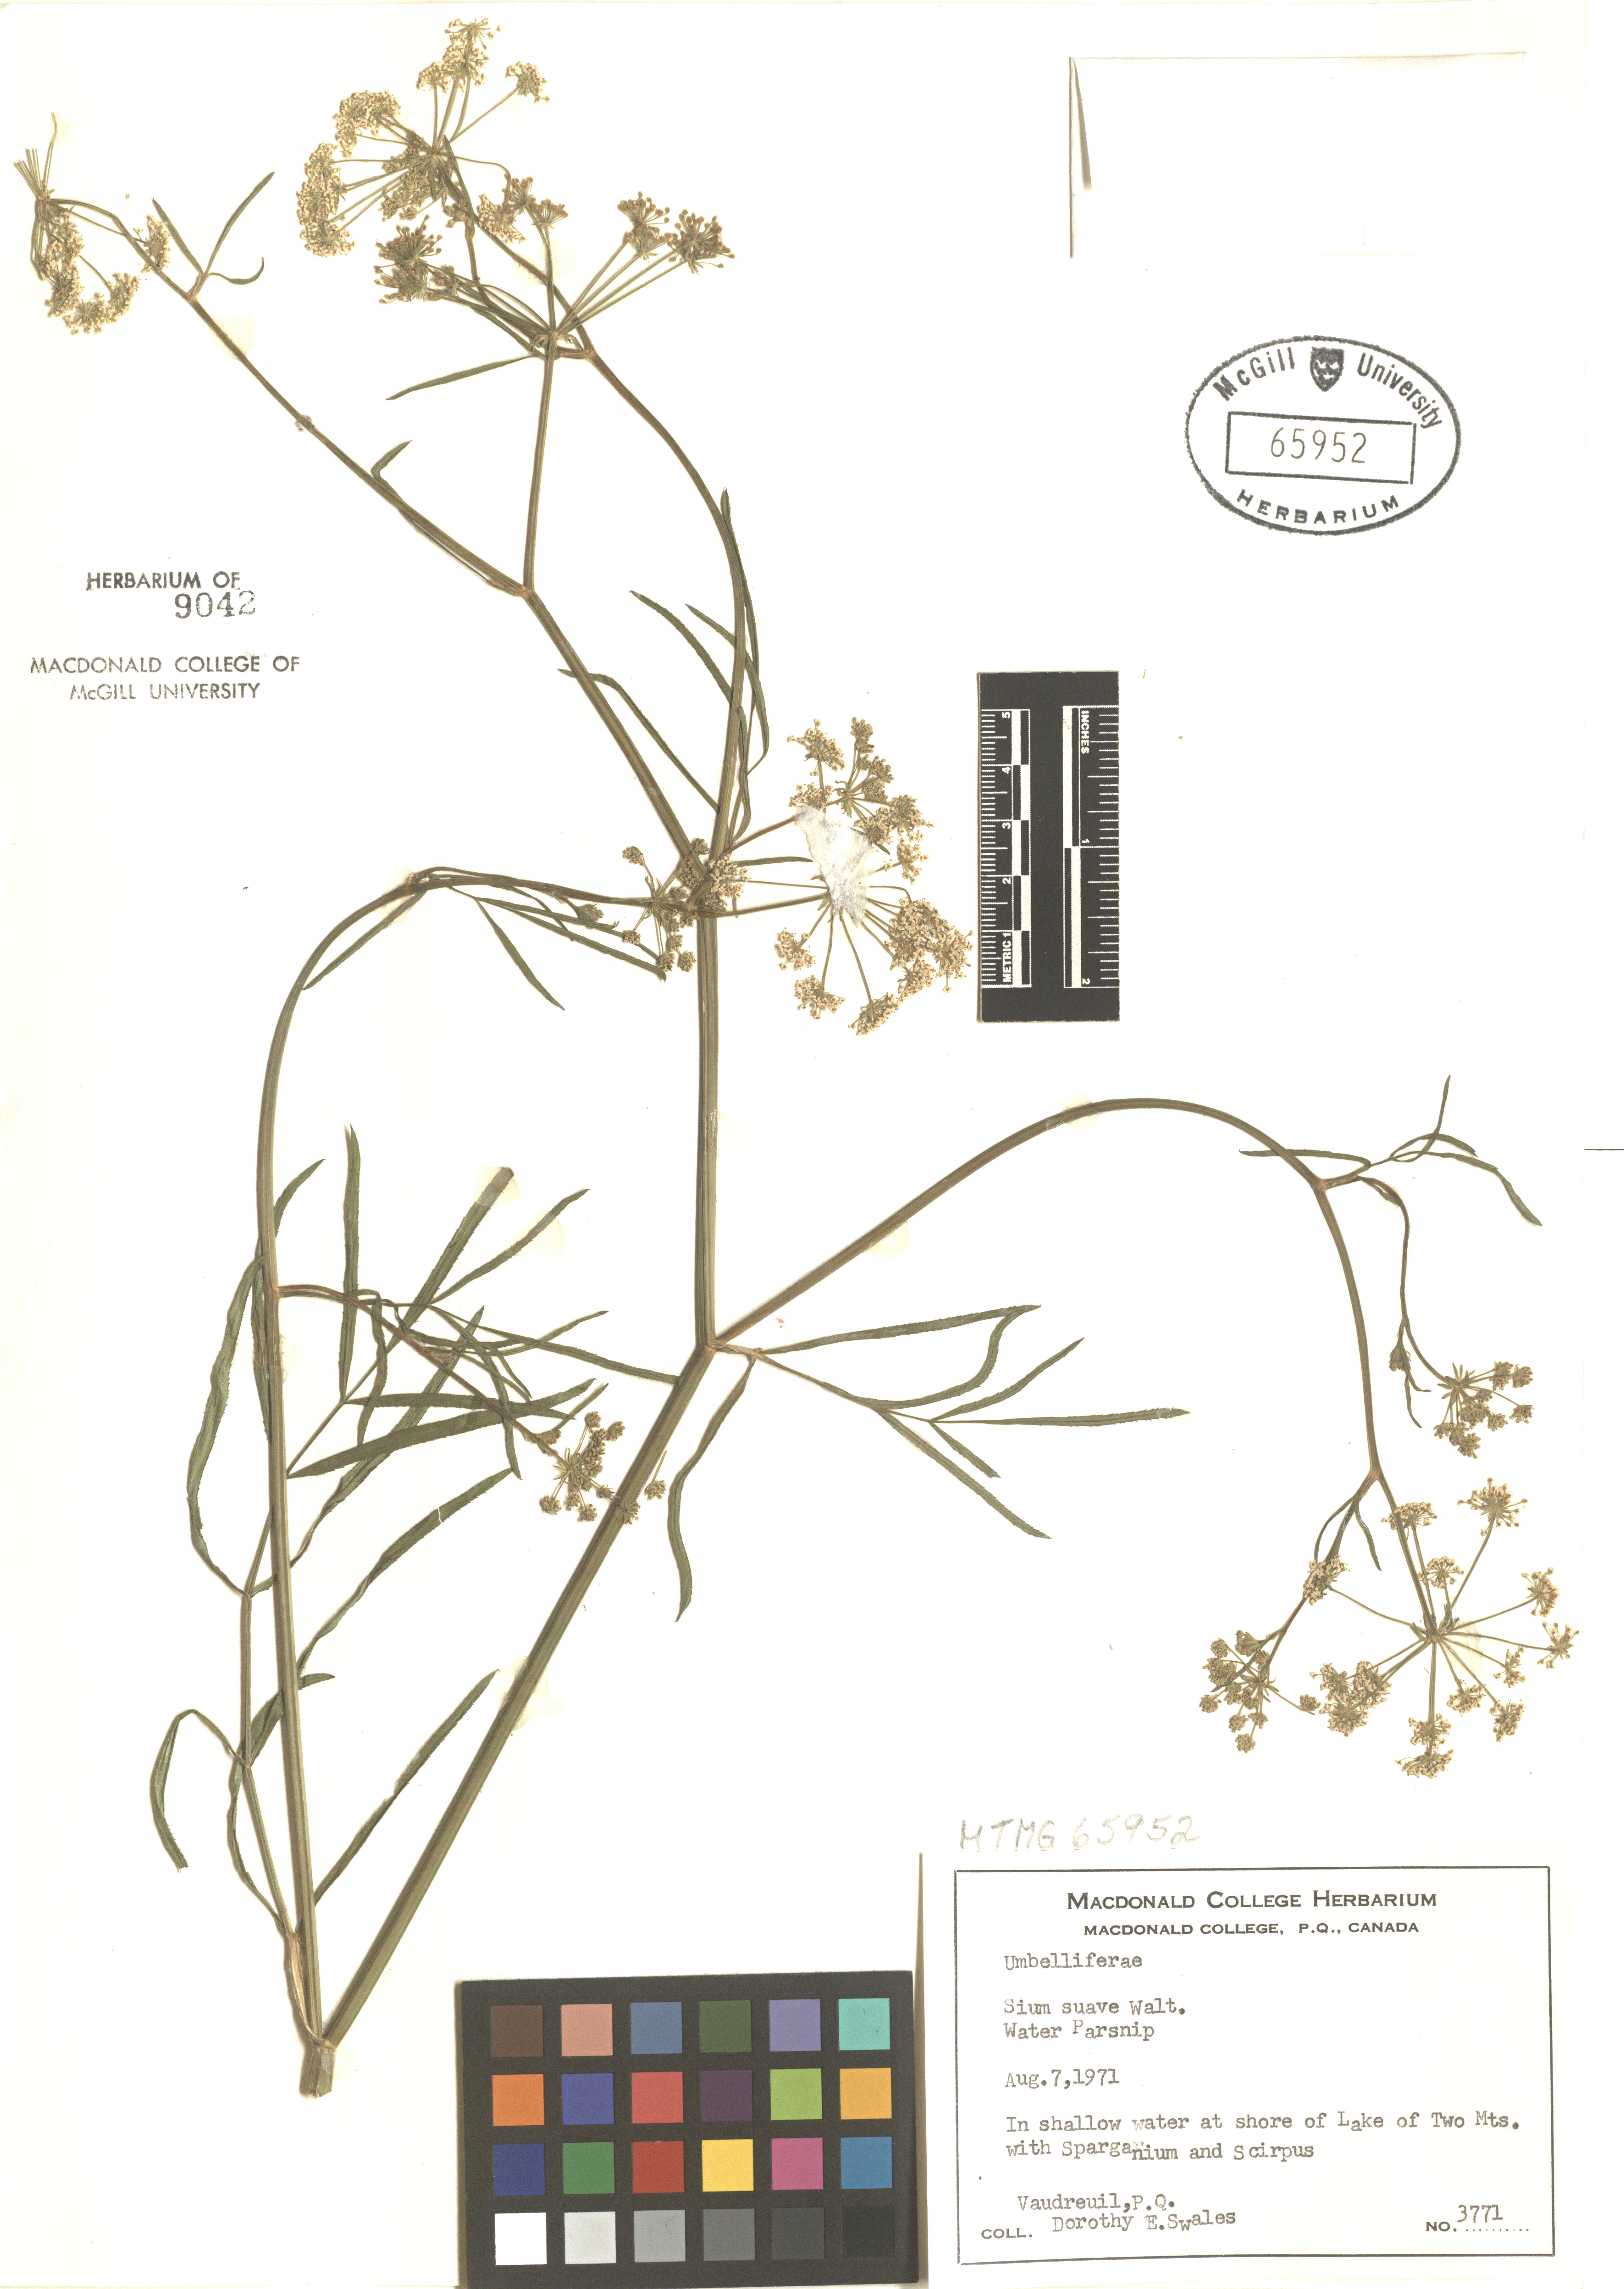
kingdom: Plantae
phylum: Tracheophyta
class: Magnoliopsida
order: Apiales
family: Apiaceae
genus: Sium
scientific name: Sium suave
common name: Hemlock water-parsnip
